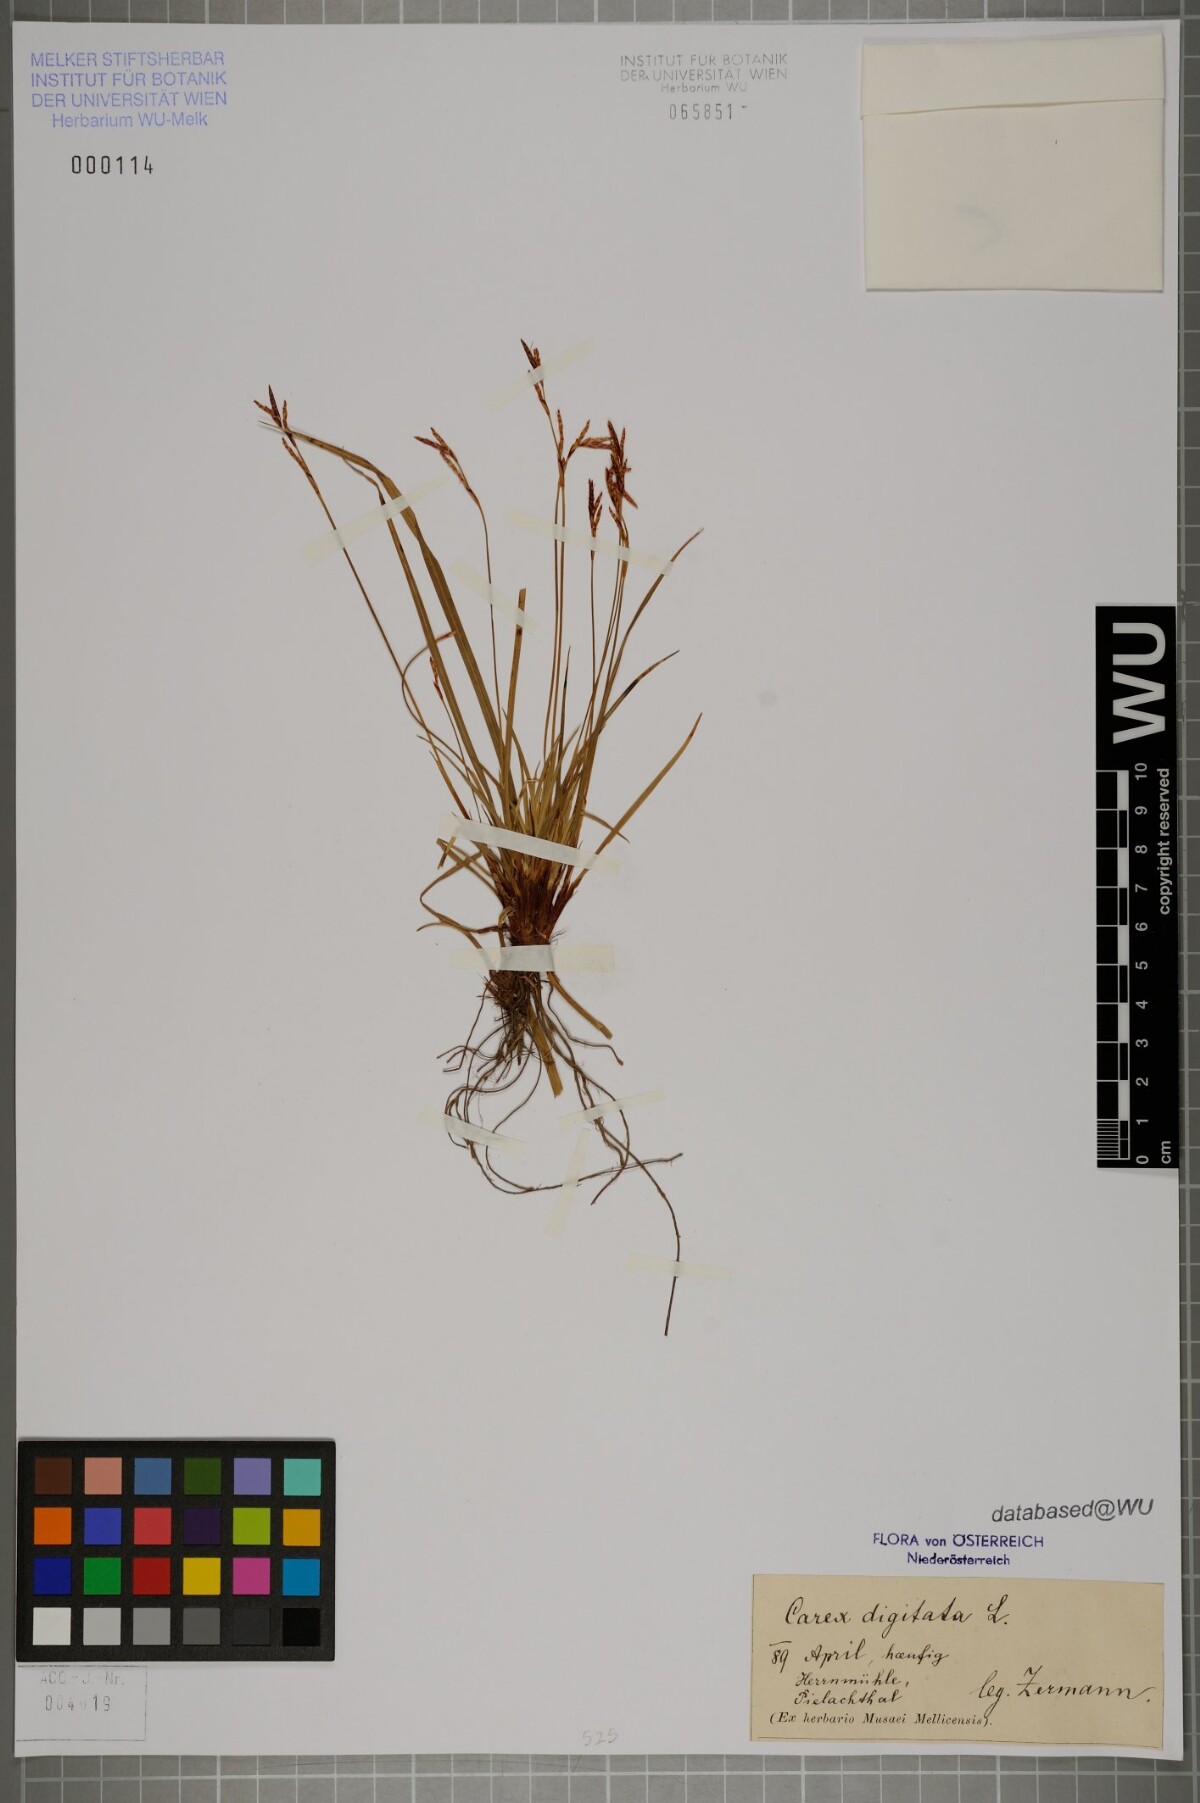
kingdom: Plantae
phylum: Tracheophyta
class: Liliopsida
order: Poales
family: Cyperaceae
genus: Carex
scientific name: Carex digitata
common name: Fingered sedge
